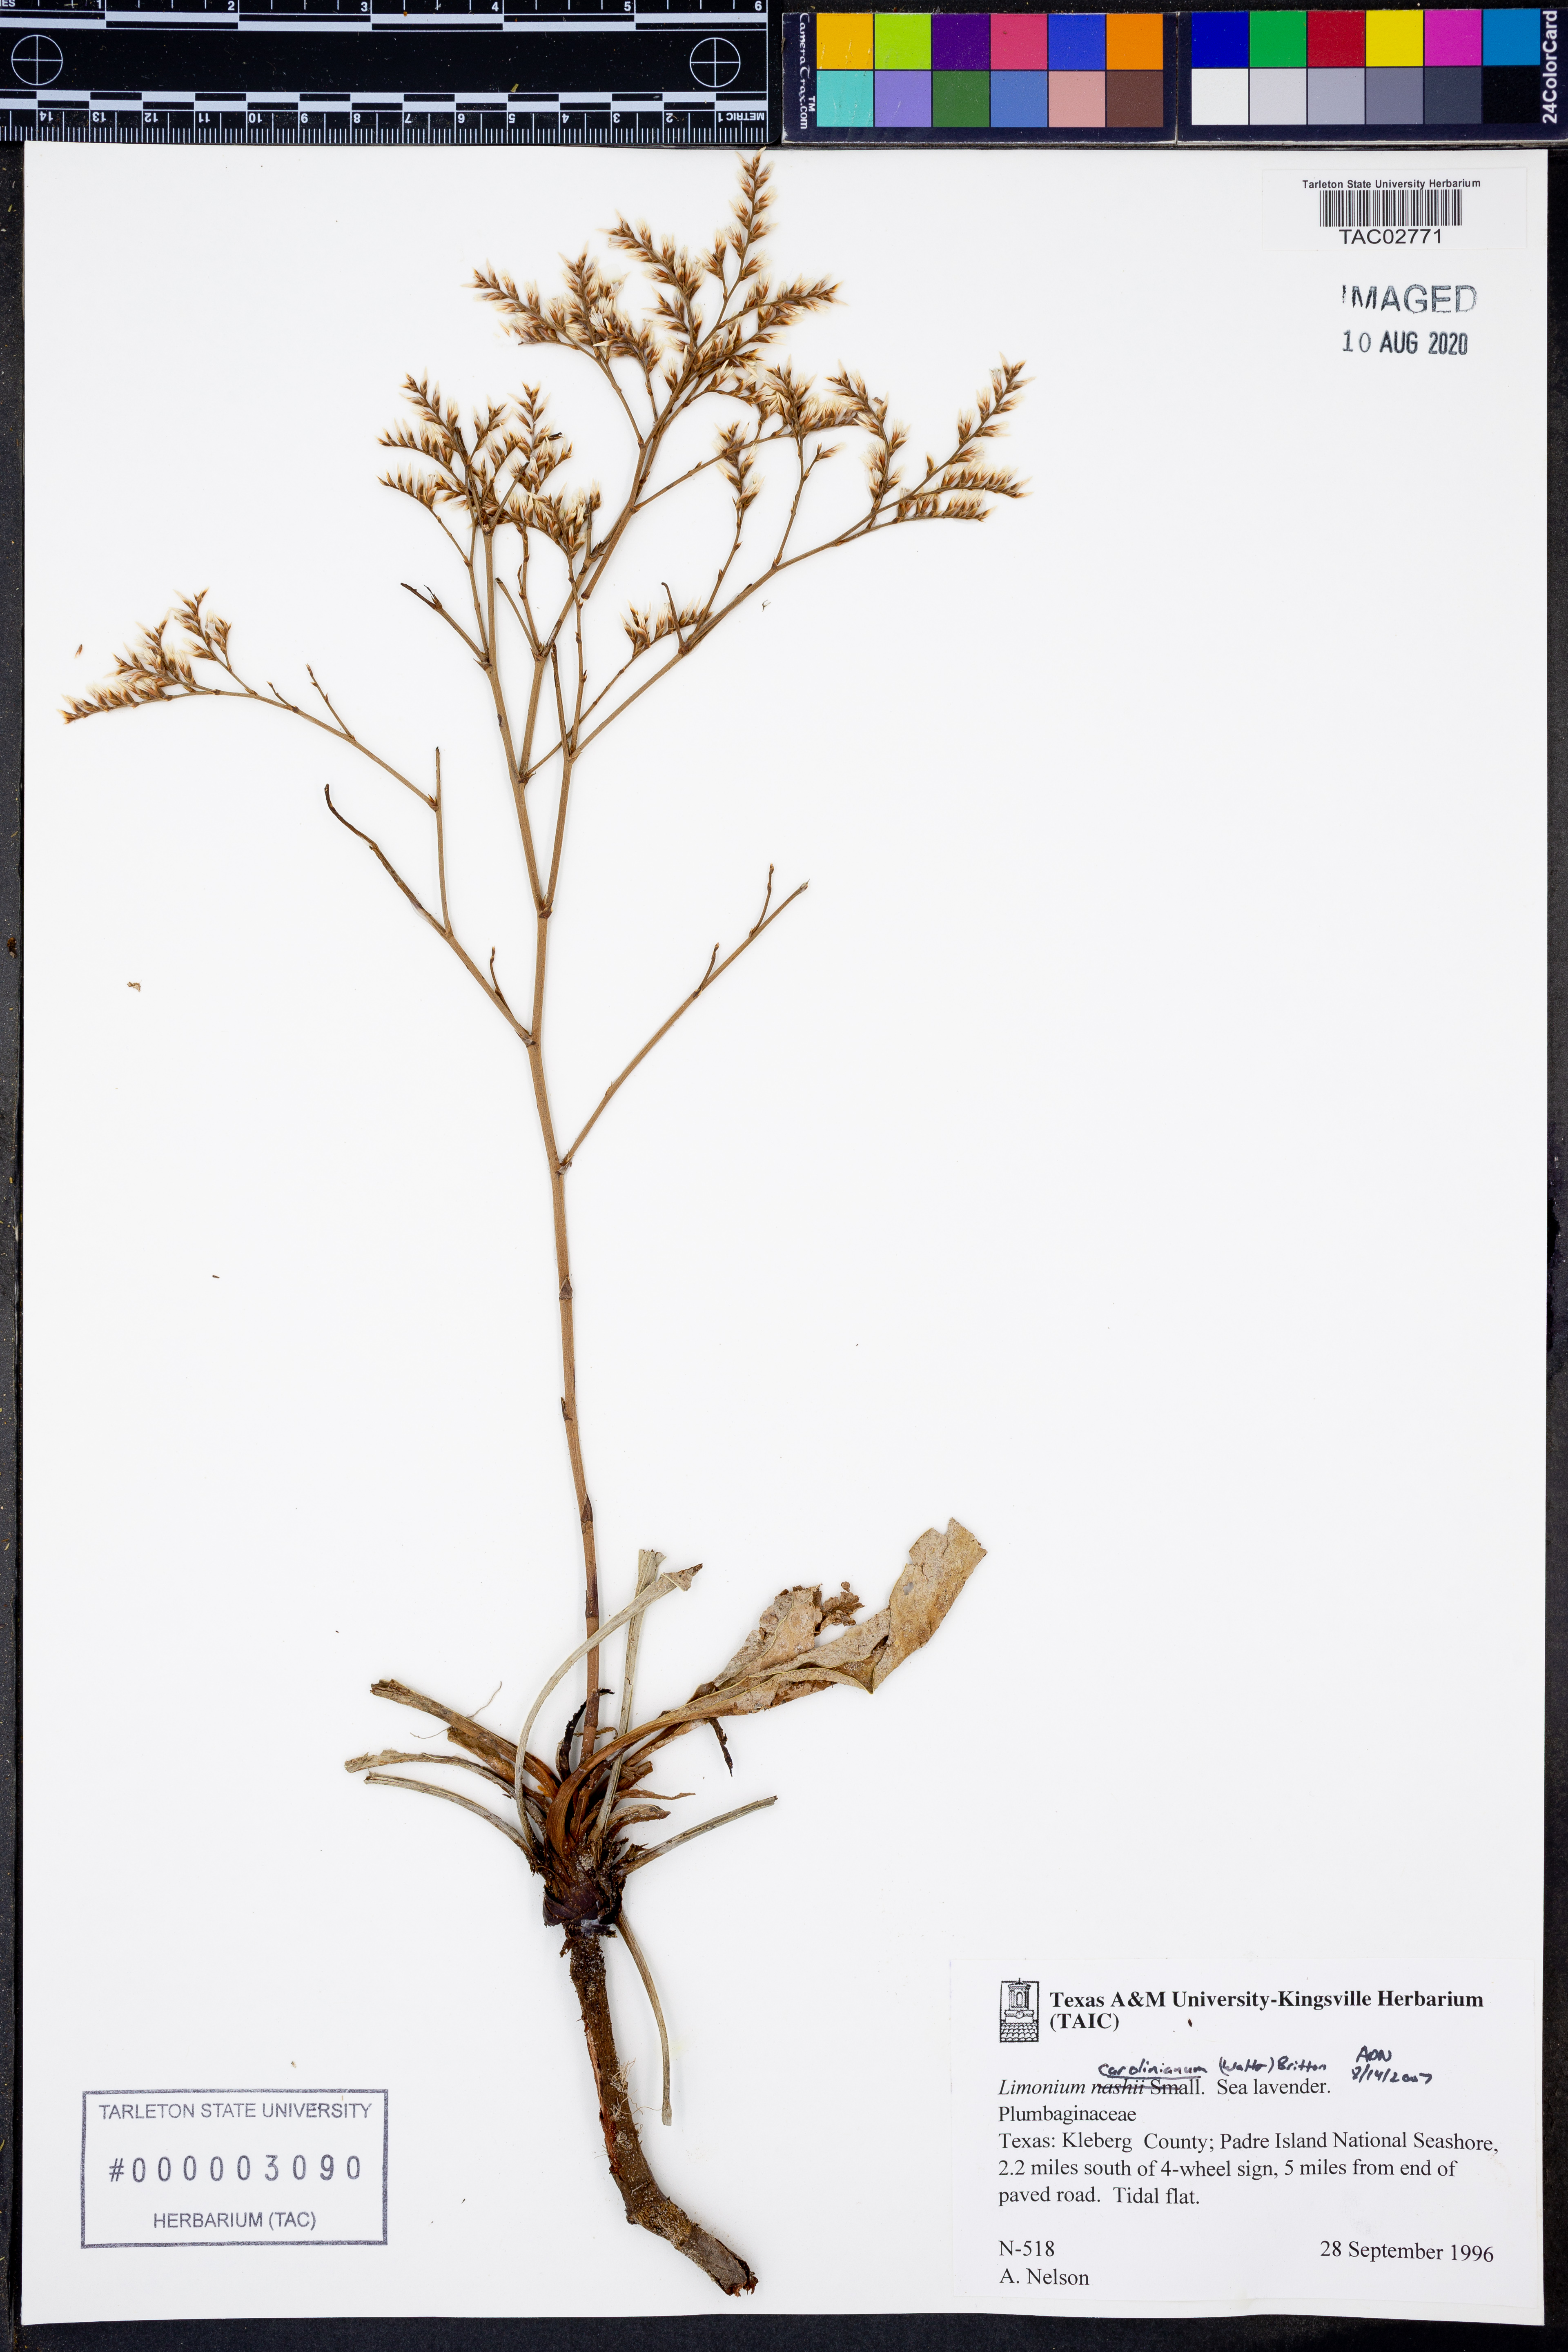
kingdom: Plantae
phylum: Tracheophyta
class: Magnoliopsida
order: Caryophyllales
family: Plumbaginaceae
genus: Limonium
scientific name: Limonium carolinianum
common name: Carolina sea lavender
